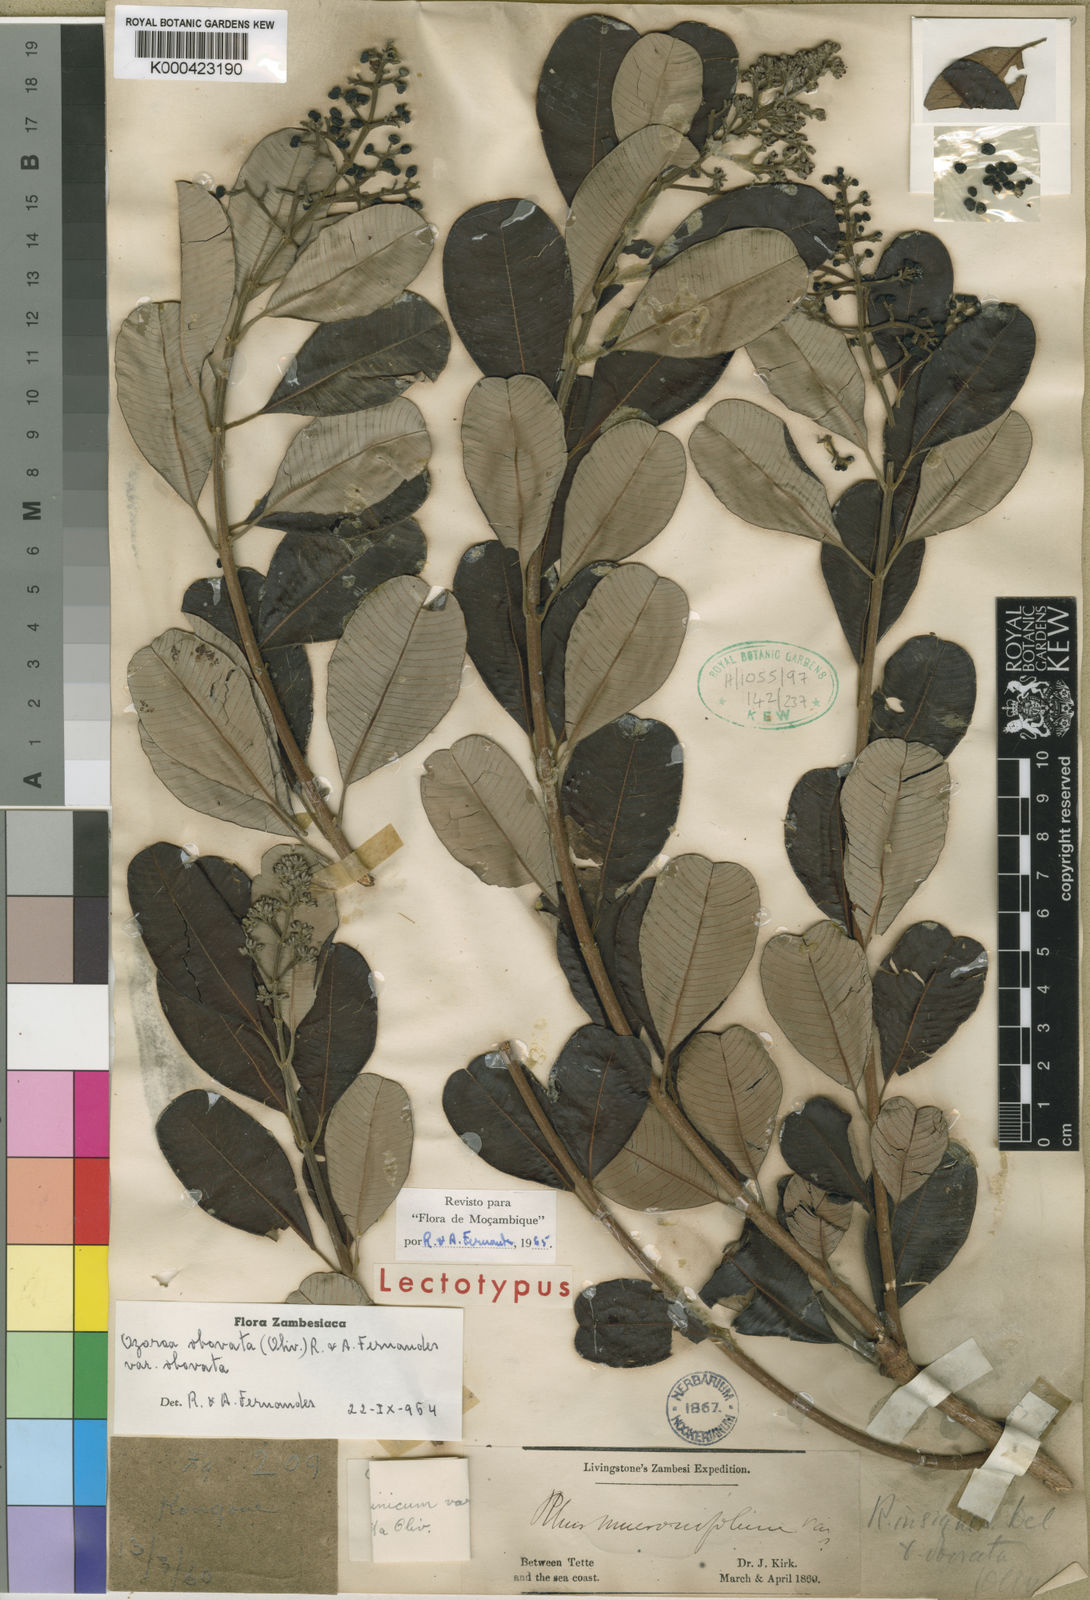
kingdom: Plantae
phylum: Tracheophyta
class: Magnoliopsida
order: Sapindales
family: Anacardiaceae
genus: Ozoroa
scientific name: Ozoroa obovata
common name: Broad-leaved resin tree
